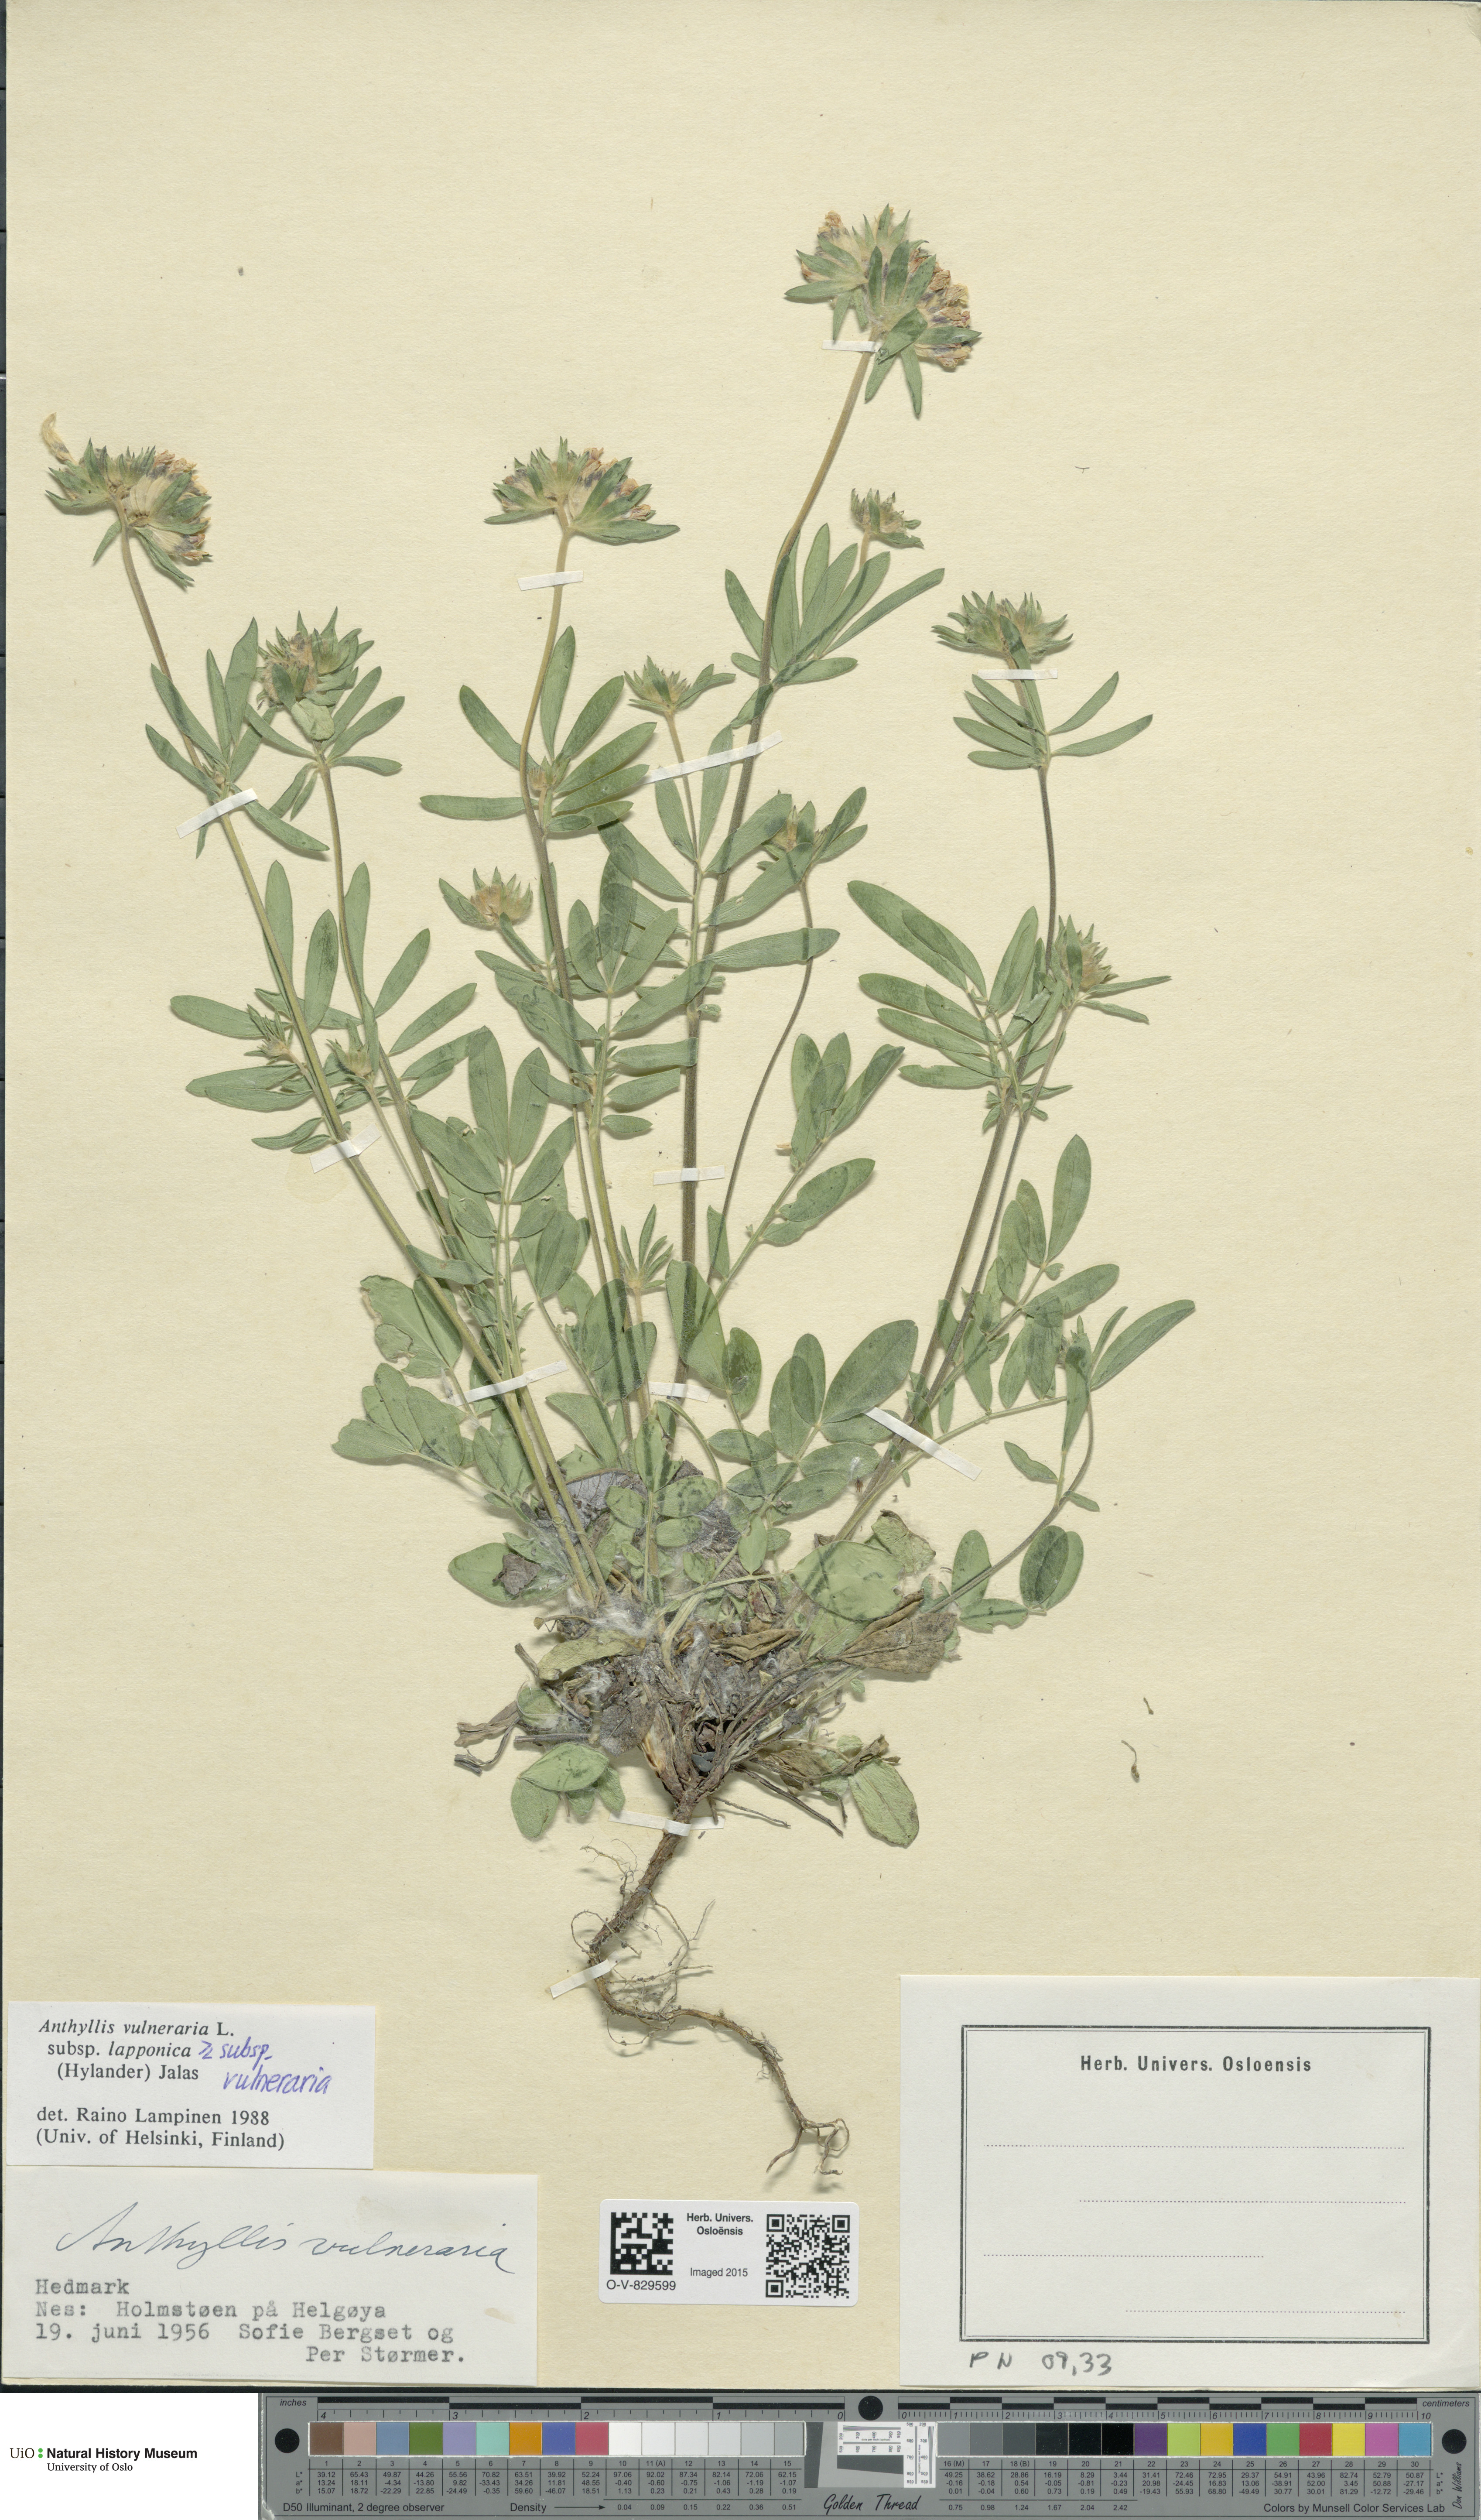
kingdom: Plantae
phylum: Tracheophyta
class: Magnoliopsida
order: Fabales
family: Fabaceae
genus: Anthyllis
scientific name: Anthyllis
